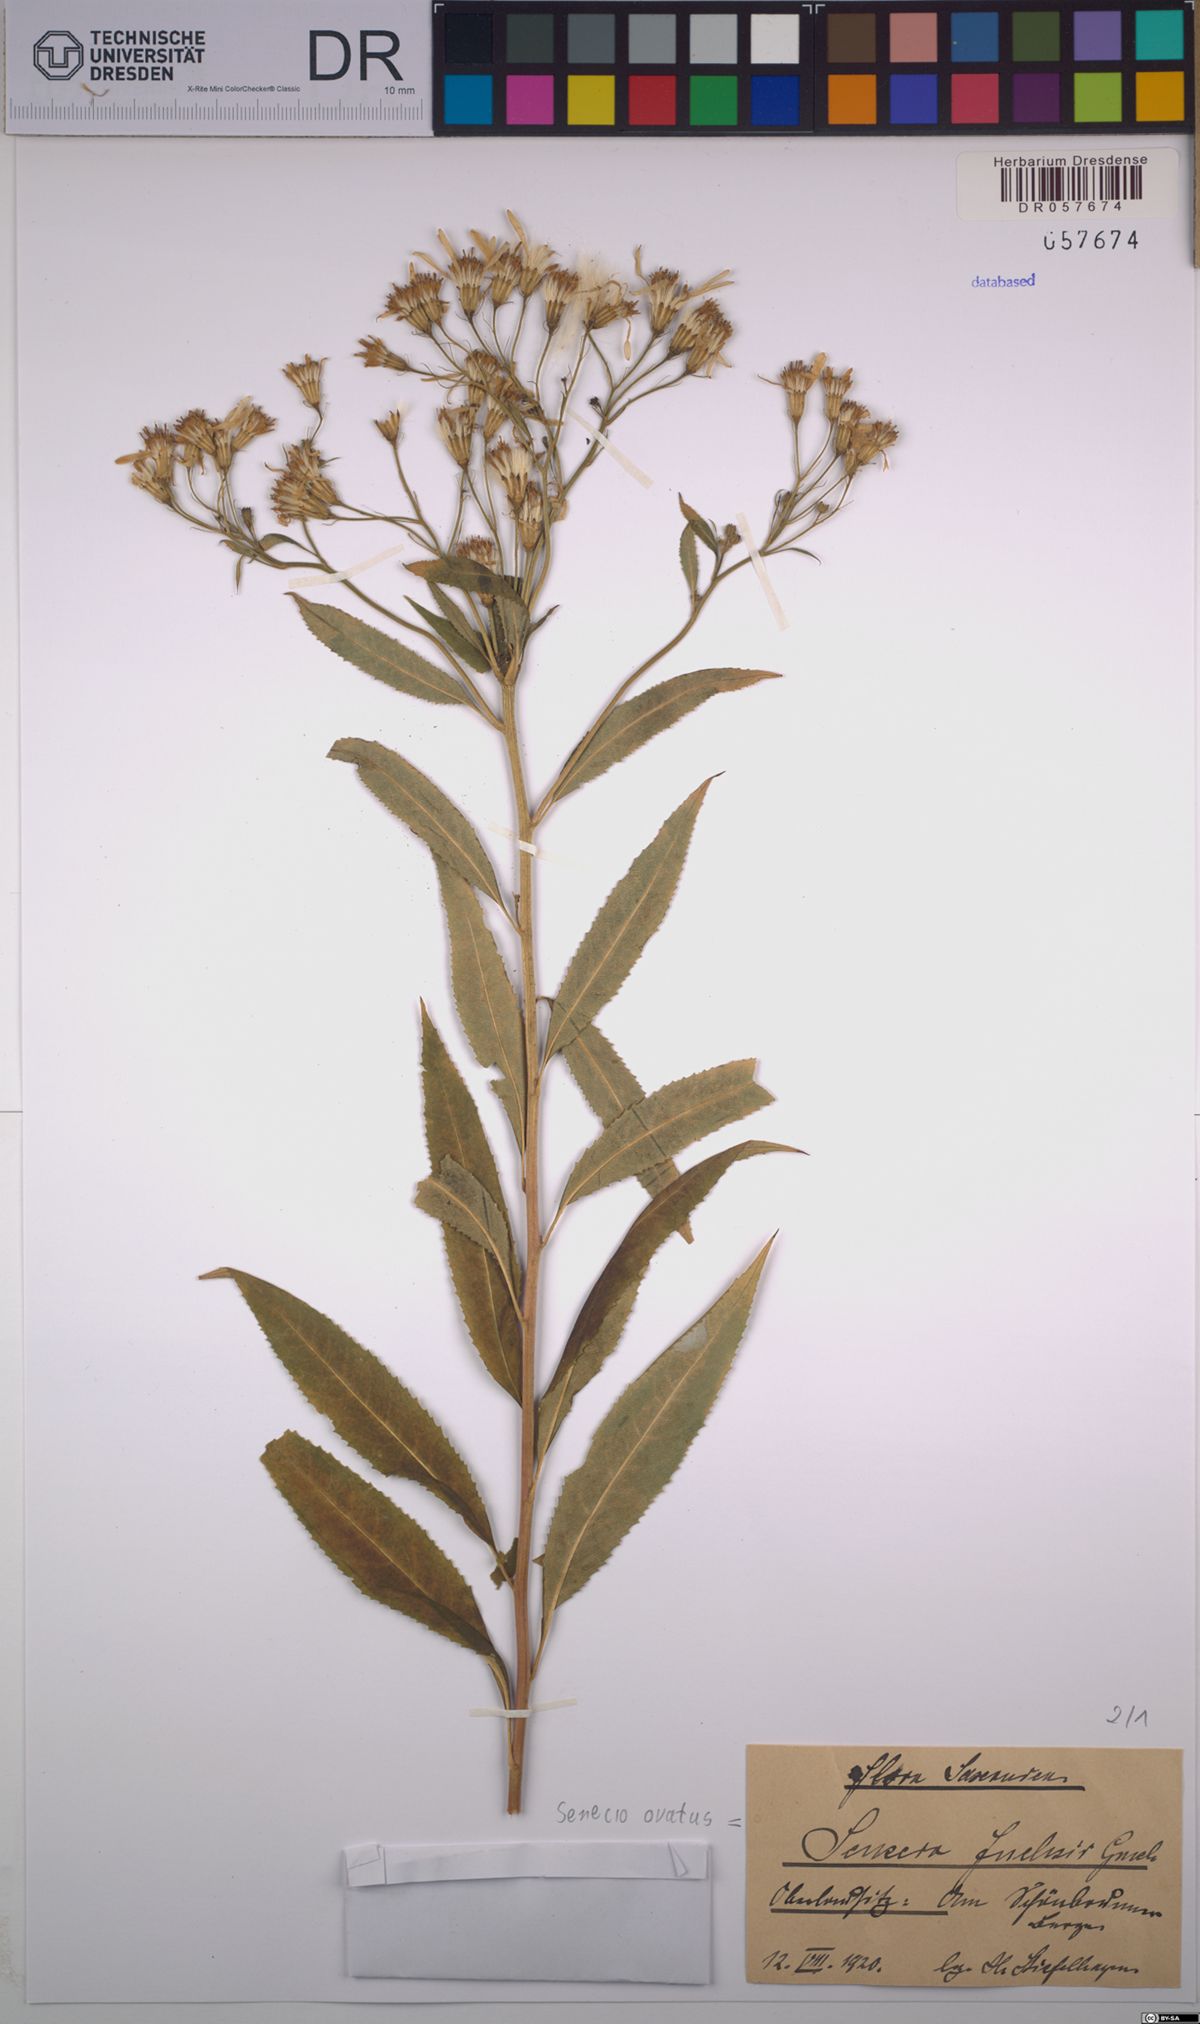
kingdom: Plantae
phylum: Tracheophyta
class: Magnoliopsida
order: Asterales
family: Asteraceae
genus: Senecio
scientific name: Senecio ovatus
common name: Wood ragwort
